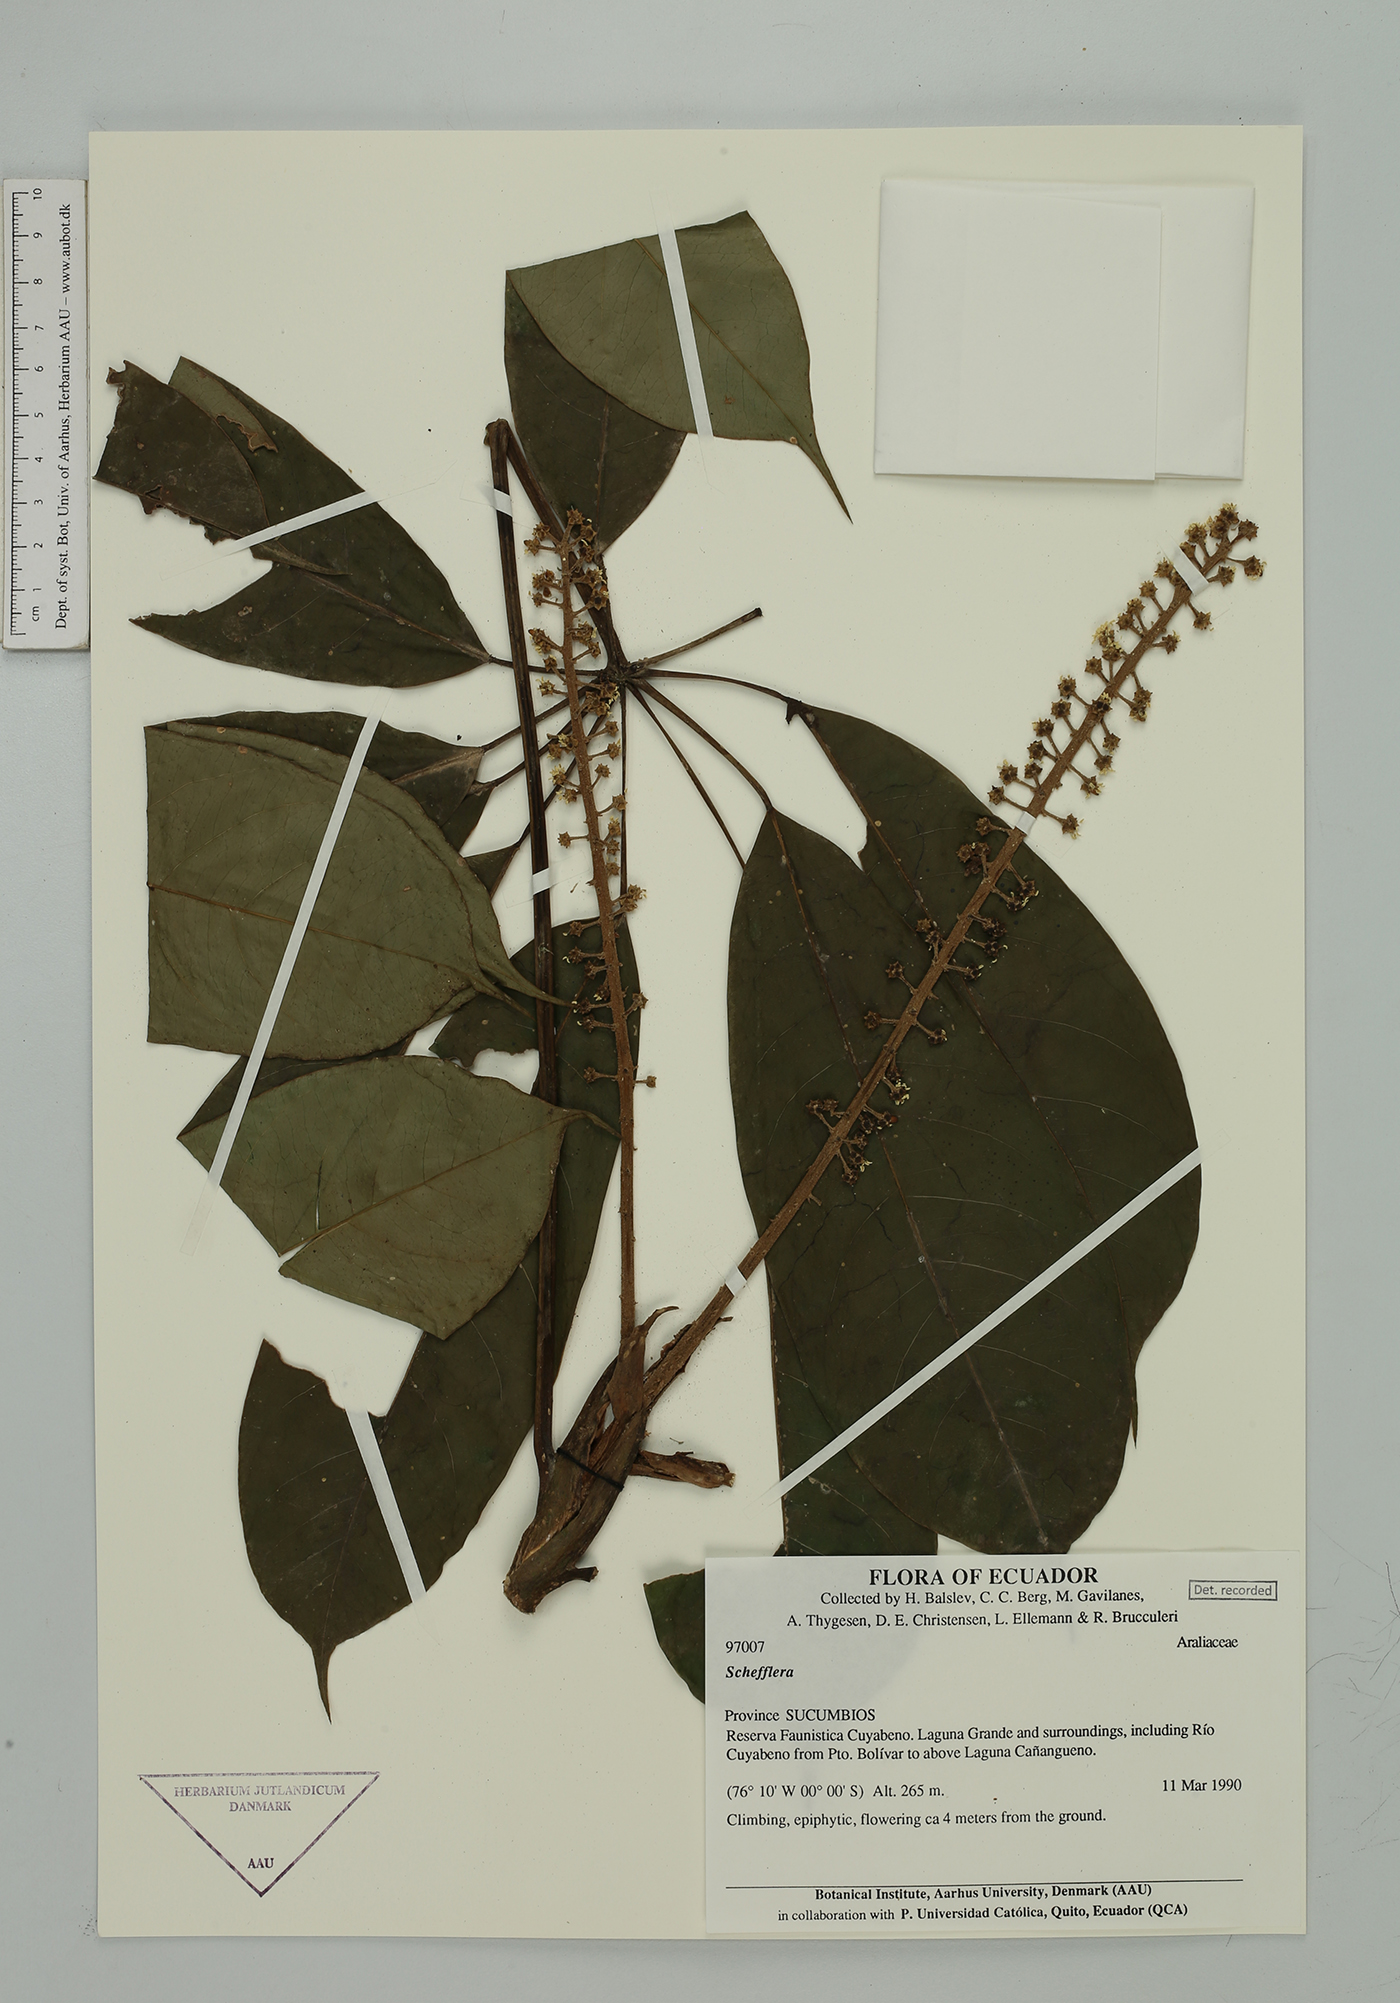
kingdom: Plantae
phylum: Tracheophyta
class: Magnoliopsida
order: Apiales
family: Araliaceae
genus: Sciodaphyllum
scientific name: Sciodaphyllum sprucei
